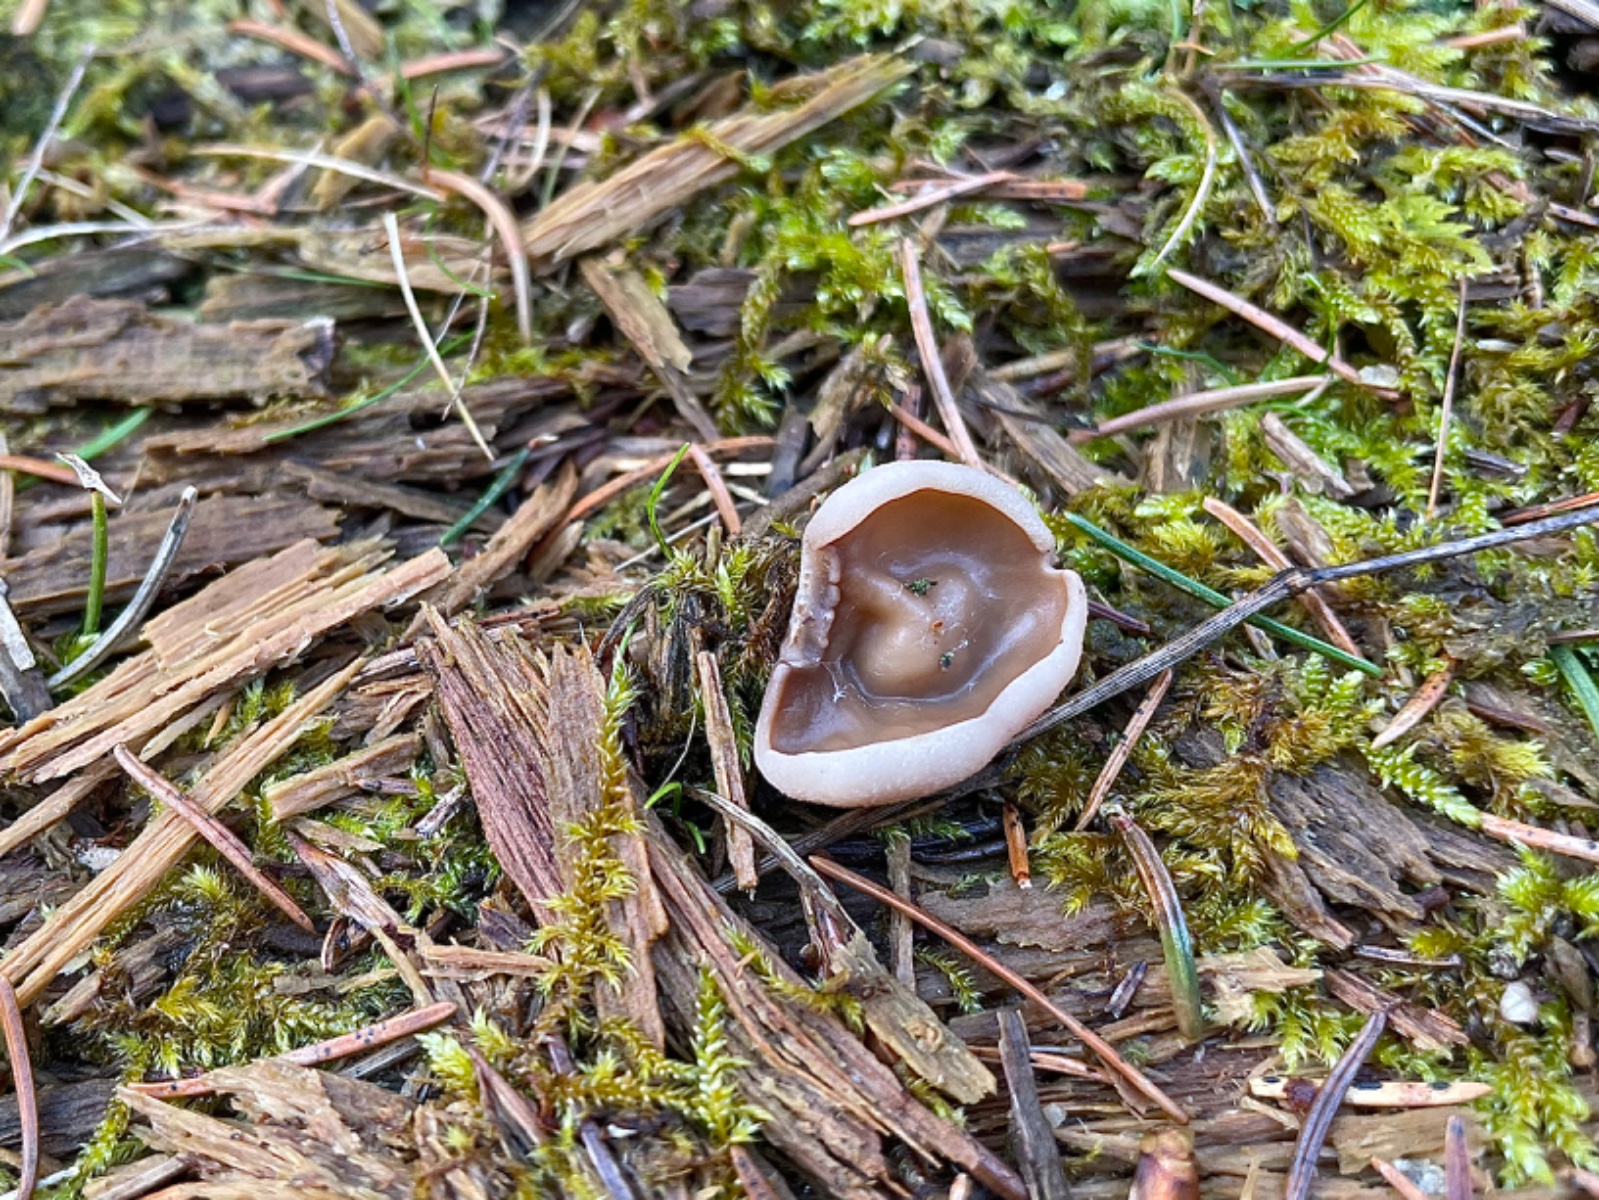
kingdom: Fungi
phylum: Ascomycota
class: Pezizomycetes
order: Pezizales
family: Discinaceae
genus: Discina
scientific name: Discina ancilis
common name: udbredt stenmorkel
